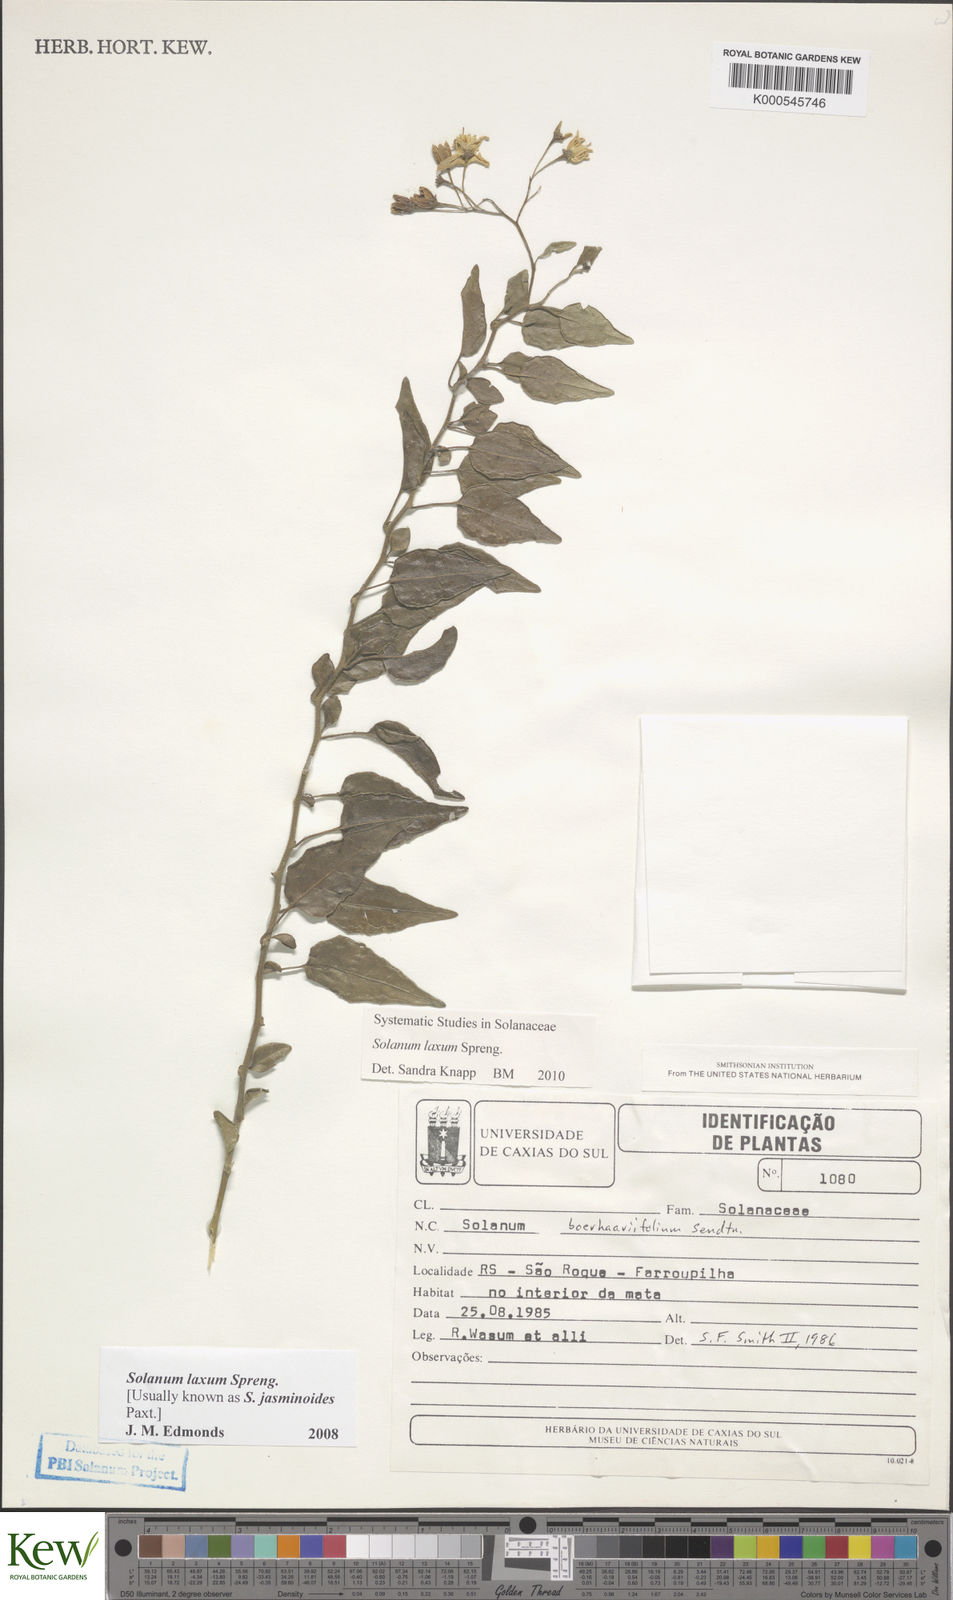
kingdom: Plantae
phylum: Tracheophyta
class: Magnoliopsida
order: Solanales
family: Solanaceae
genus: Solanum
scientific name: Solanum laxum
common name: Nightshade
